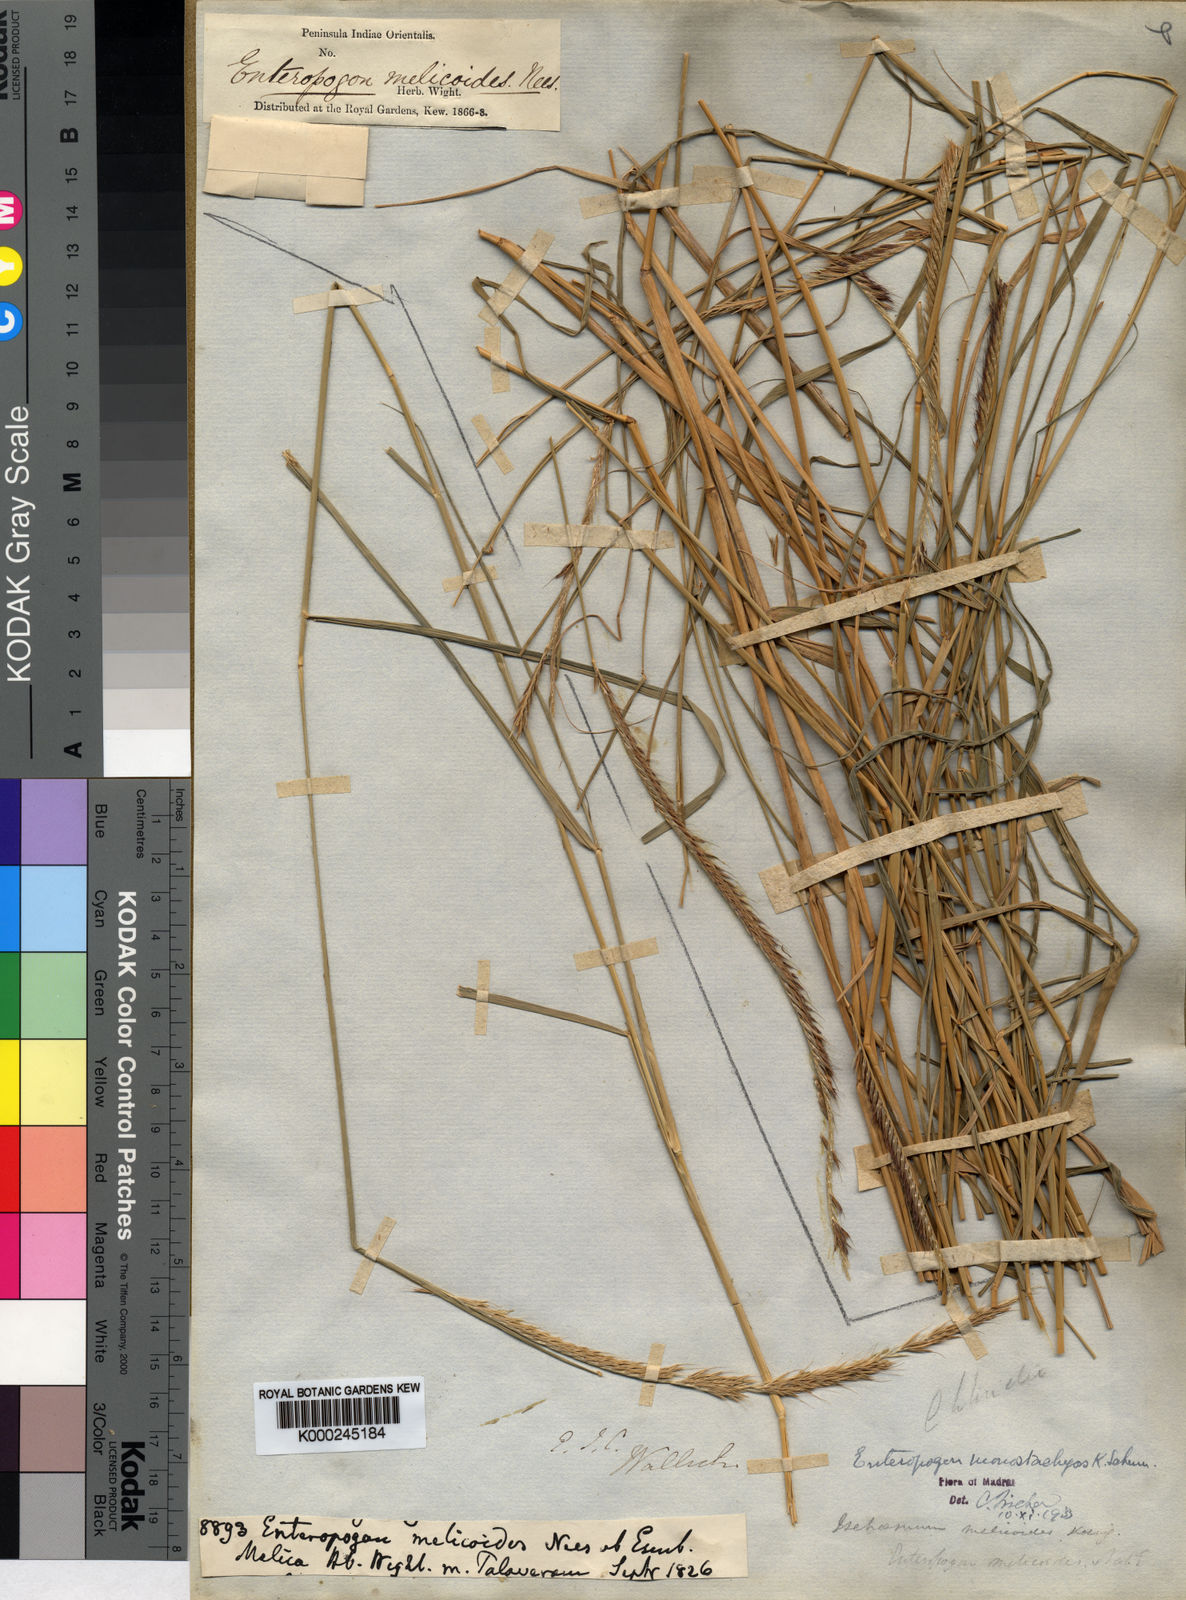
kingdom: Plantae
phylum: Tracheophyta
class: Liliopsida
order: Poales
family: Poaceae
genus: Enteropogon
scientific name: Enteropogon monostachyos
